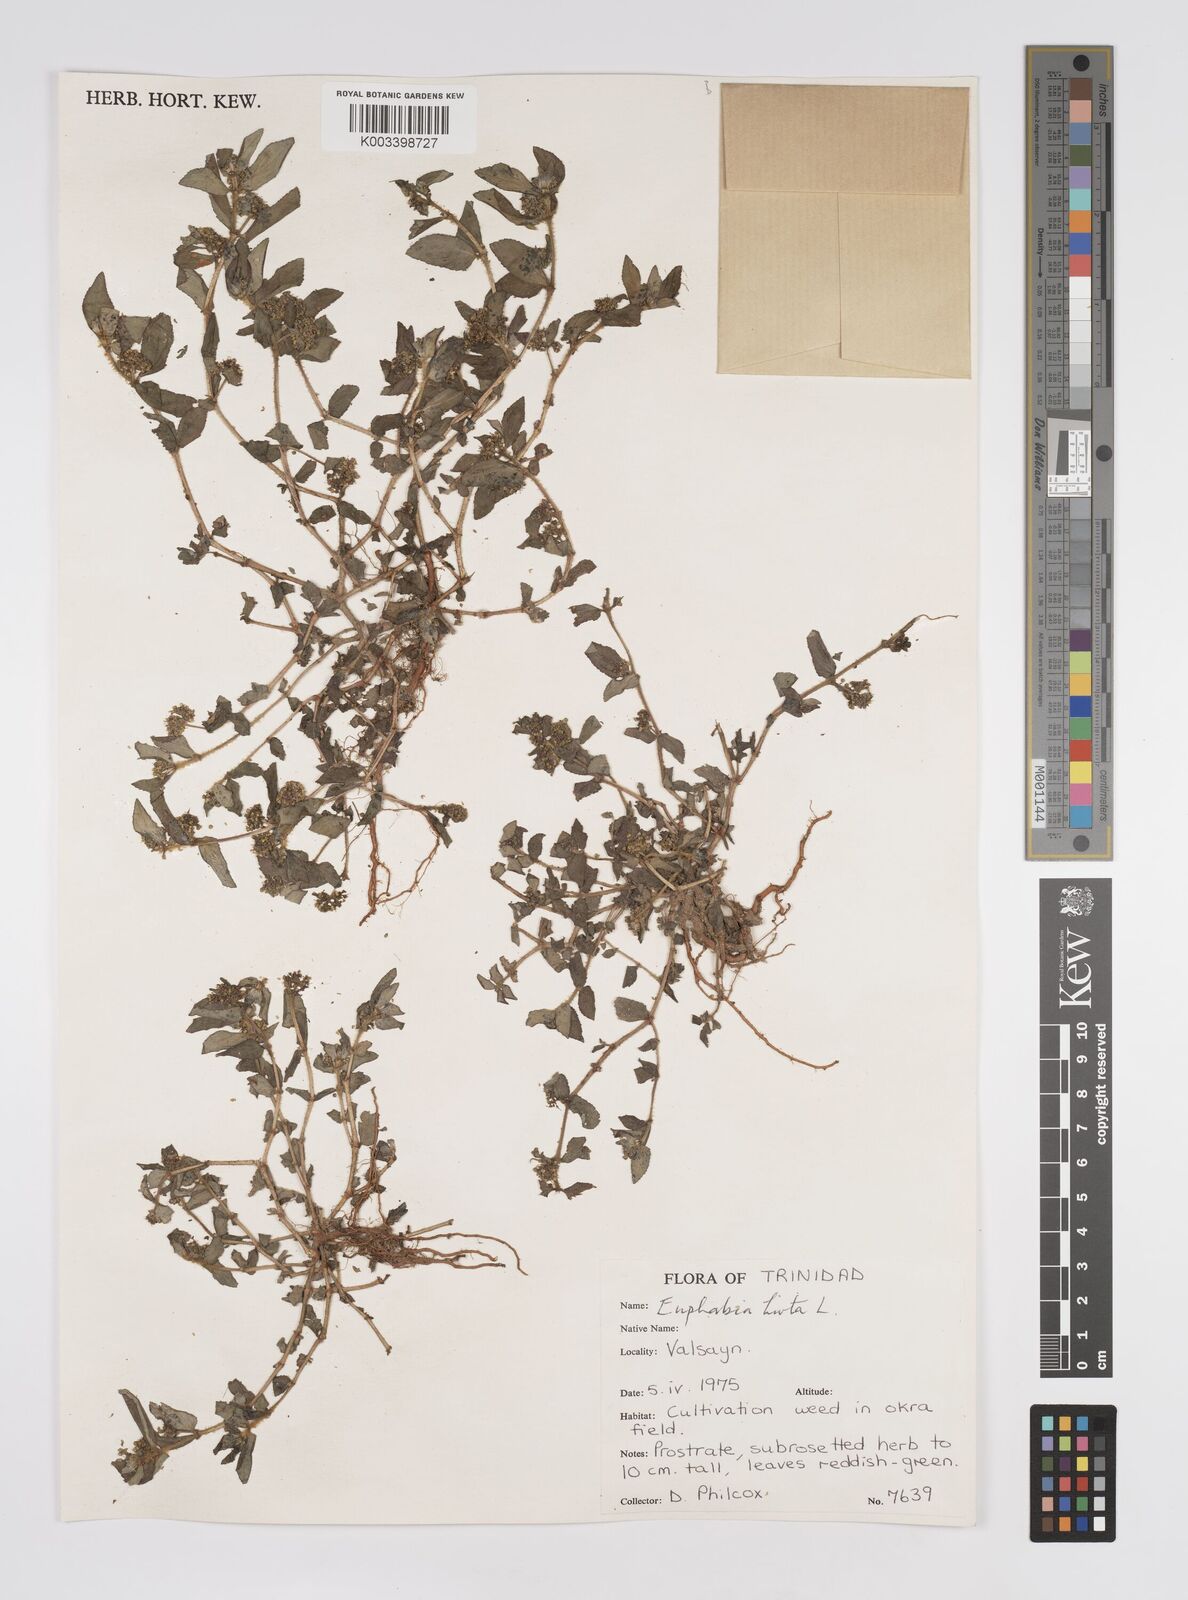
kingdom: Plantae
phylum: Tracheophyta
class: Magnoliopsida
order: Malpighiales
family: Euphorbiaceae
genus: Euphorbia
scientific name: Euphorbia hirta
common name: Pillpod sandmat
